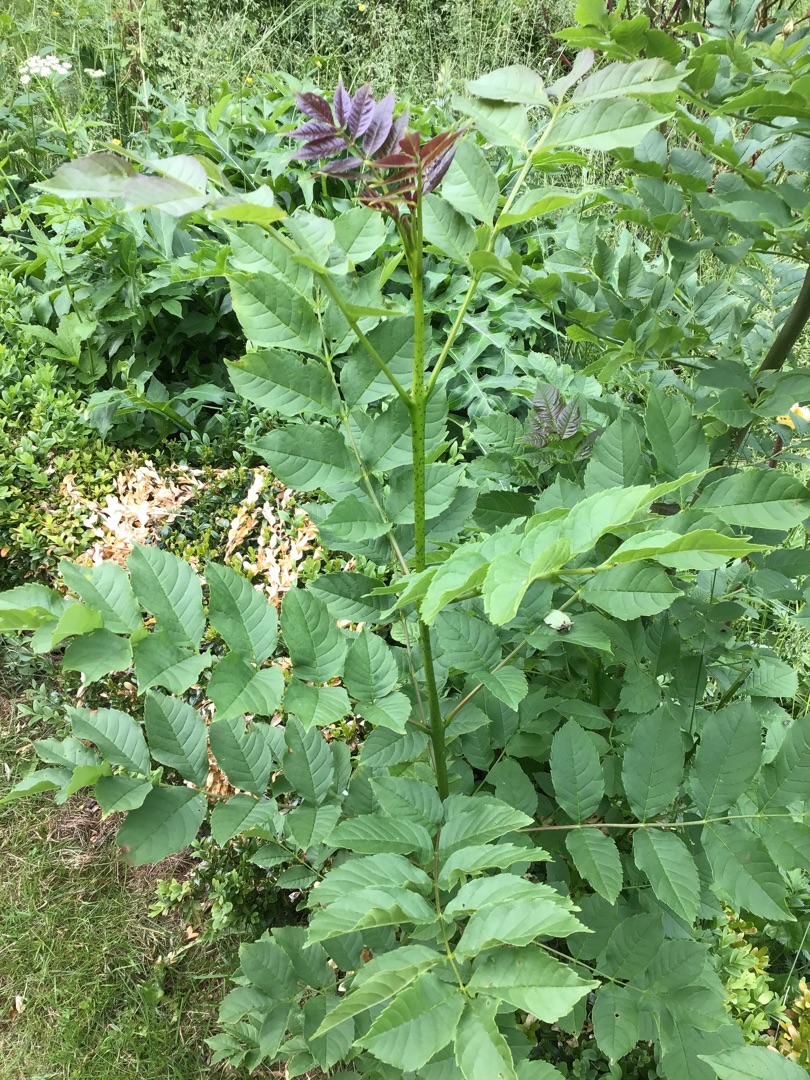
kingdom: Plantae
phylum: Tracheophyta
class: Magnoliopsida
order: Lamiales
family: Oleaceae
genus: Fraxinus
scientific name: Fraxinus excelsior
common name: Ask
